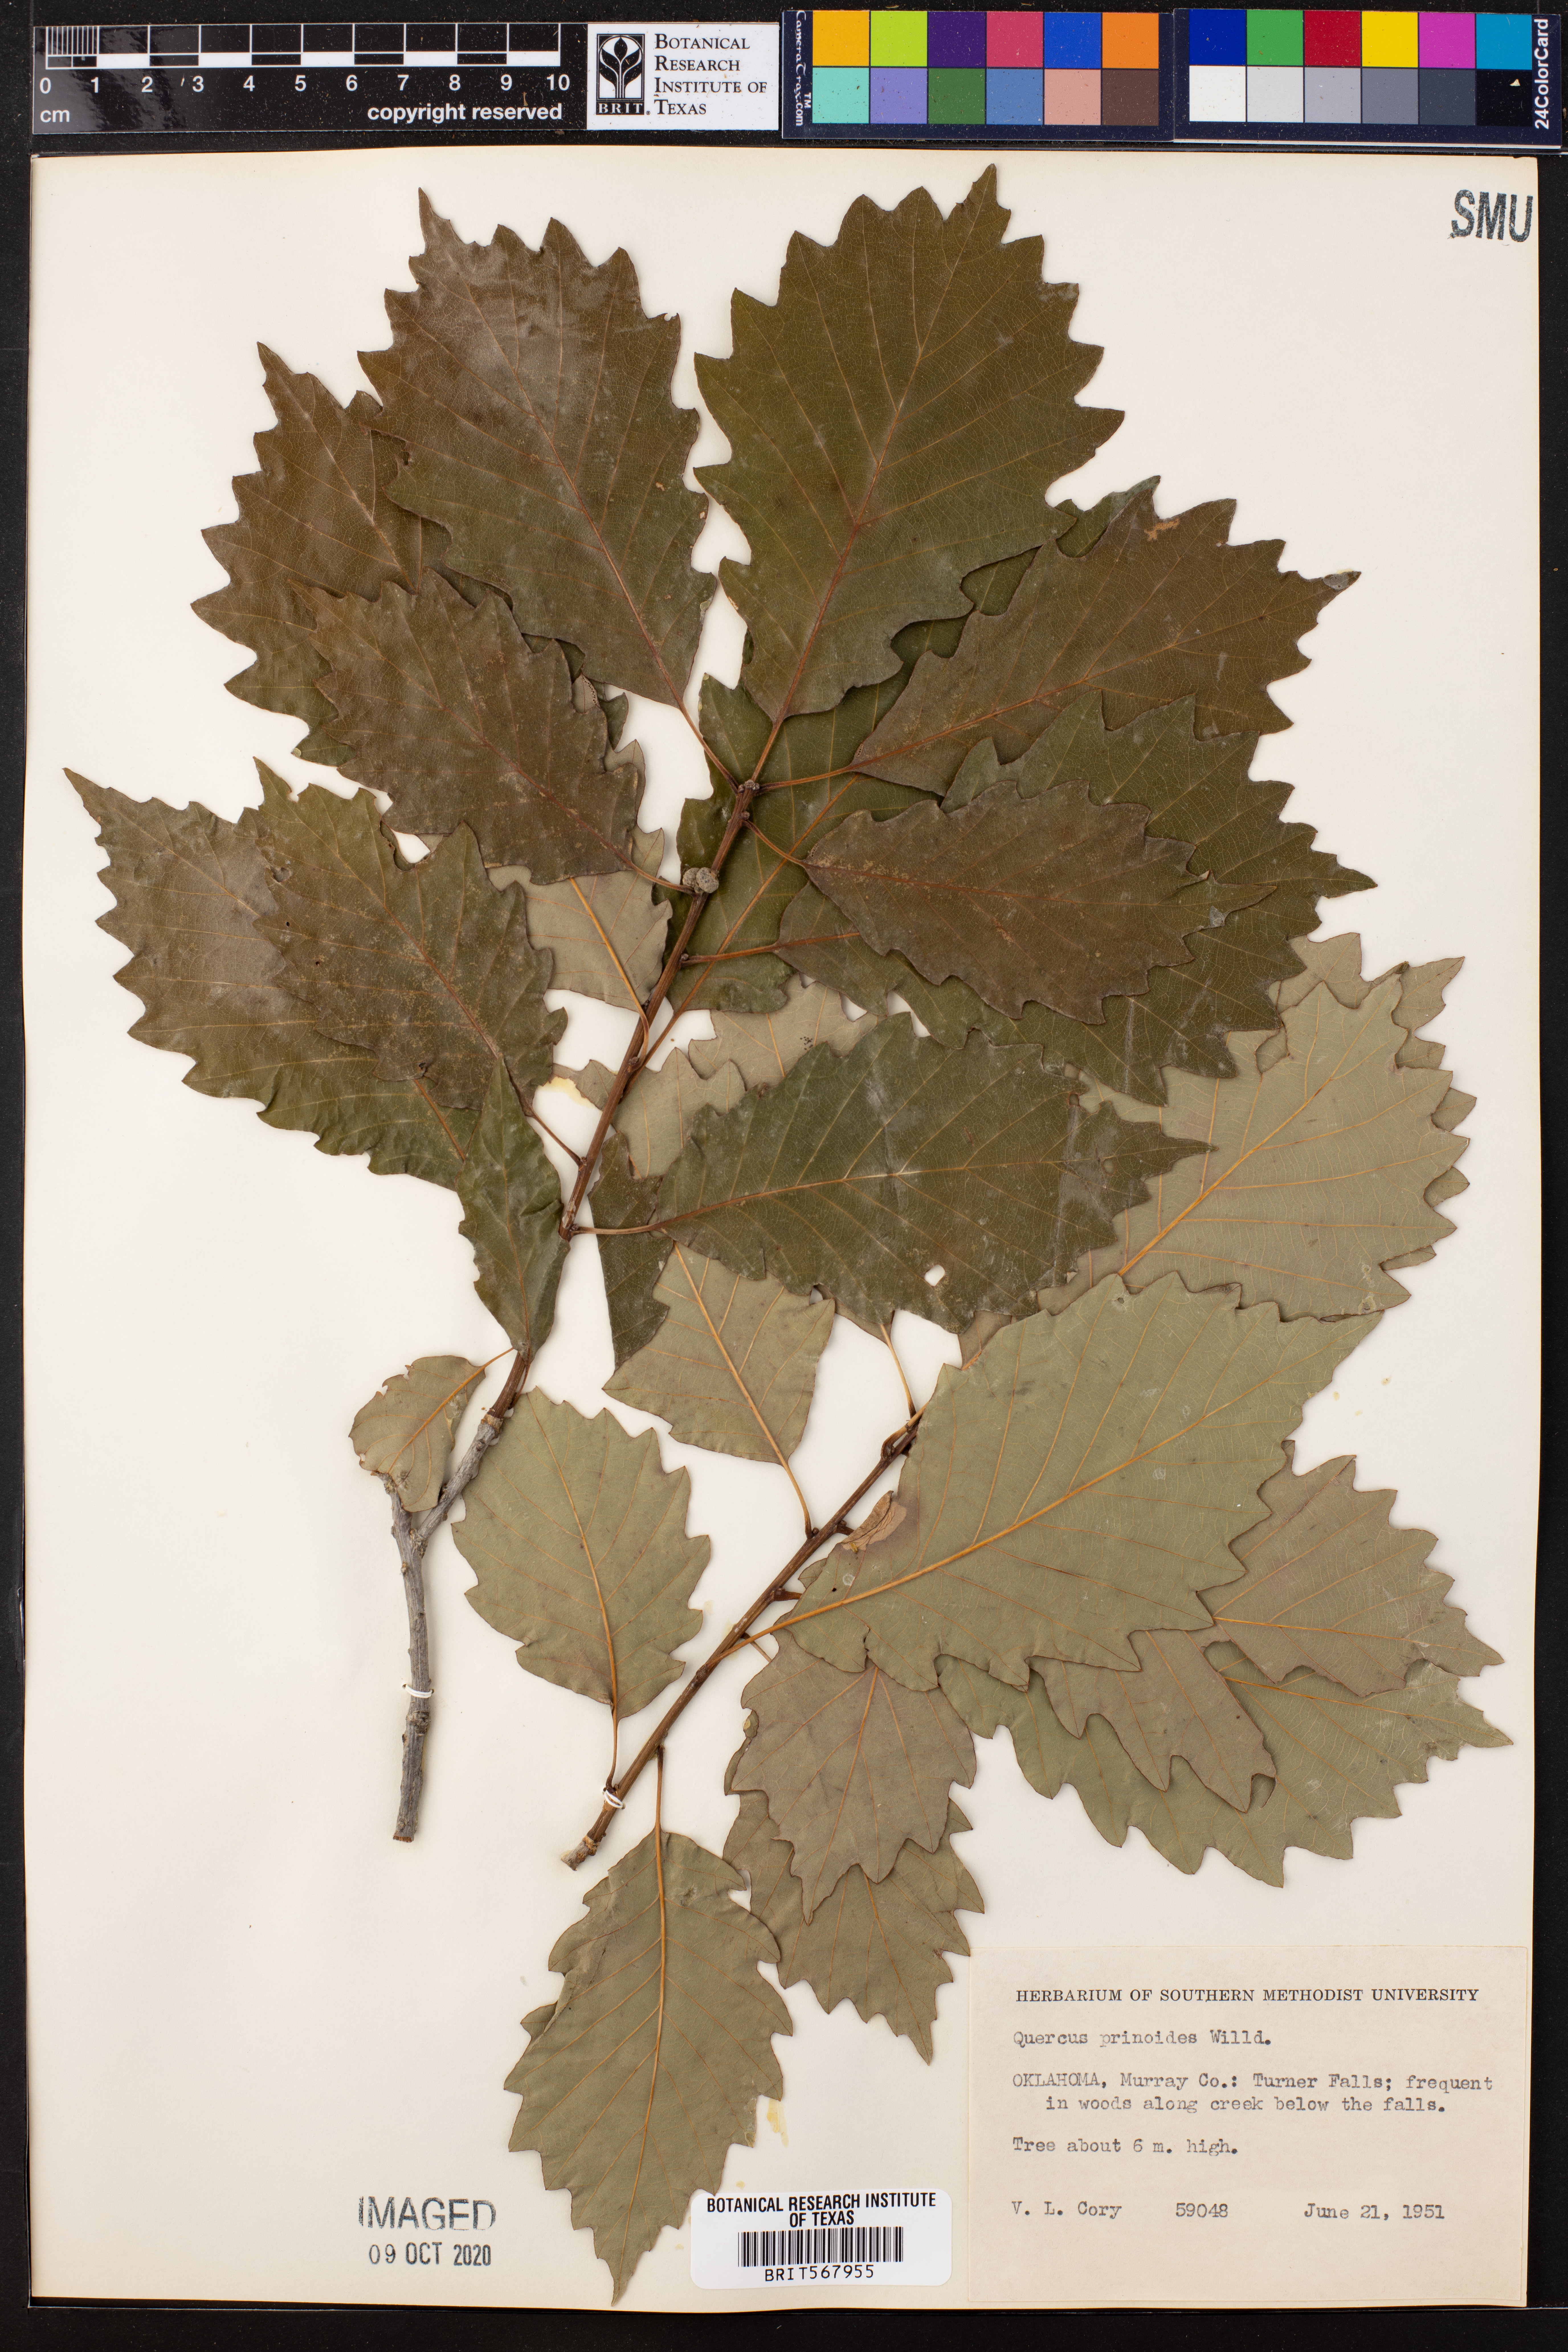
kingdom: Plantae
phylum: Tracheophyta
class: Magnoliopsida
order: Fagales
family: Fagaceae
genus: Quercus
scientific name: Quercus prinoides
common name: Dwarf chinkapin oak
